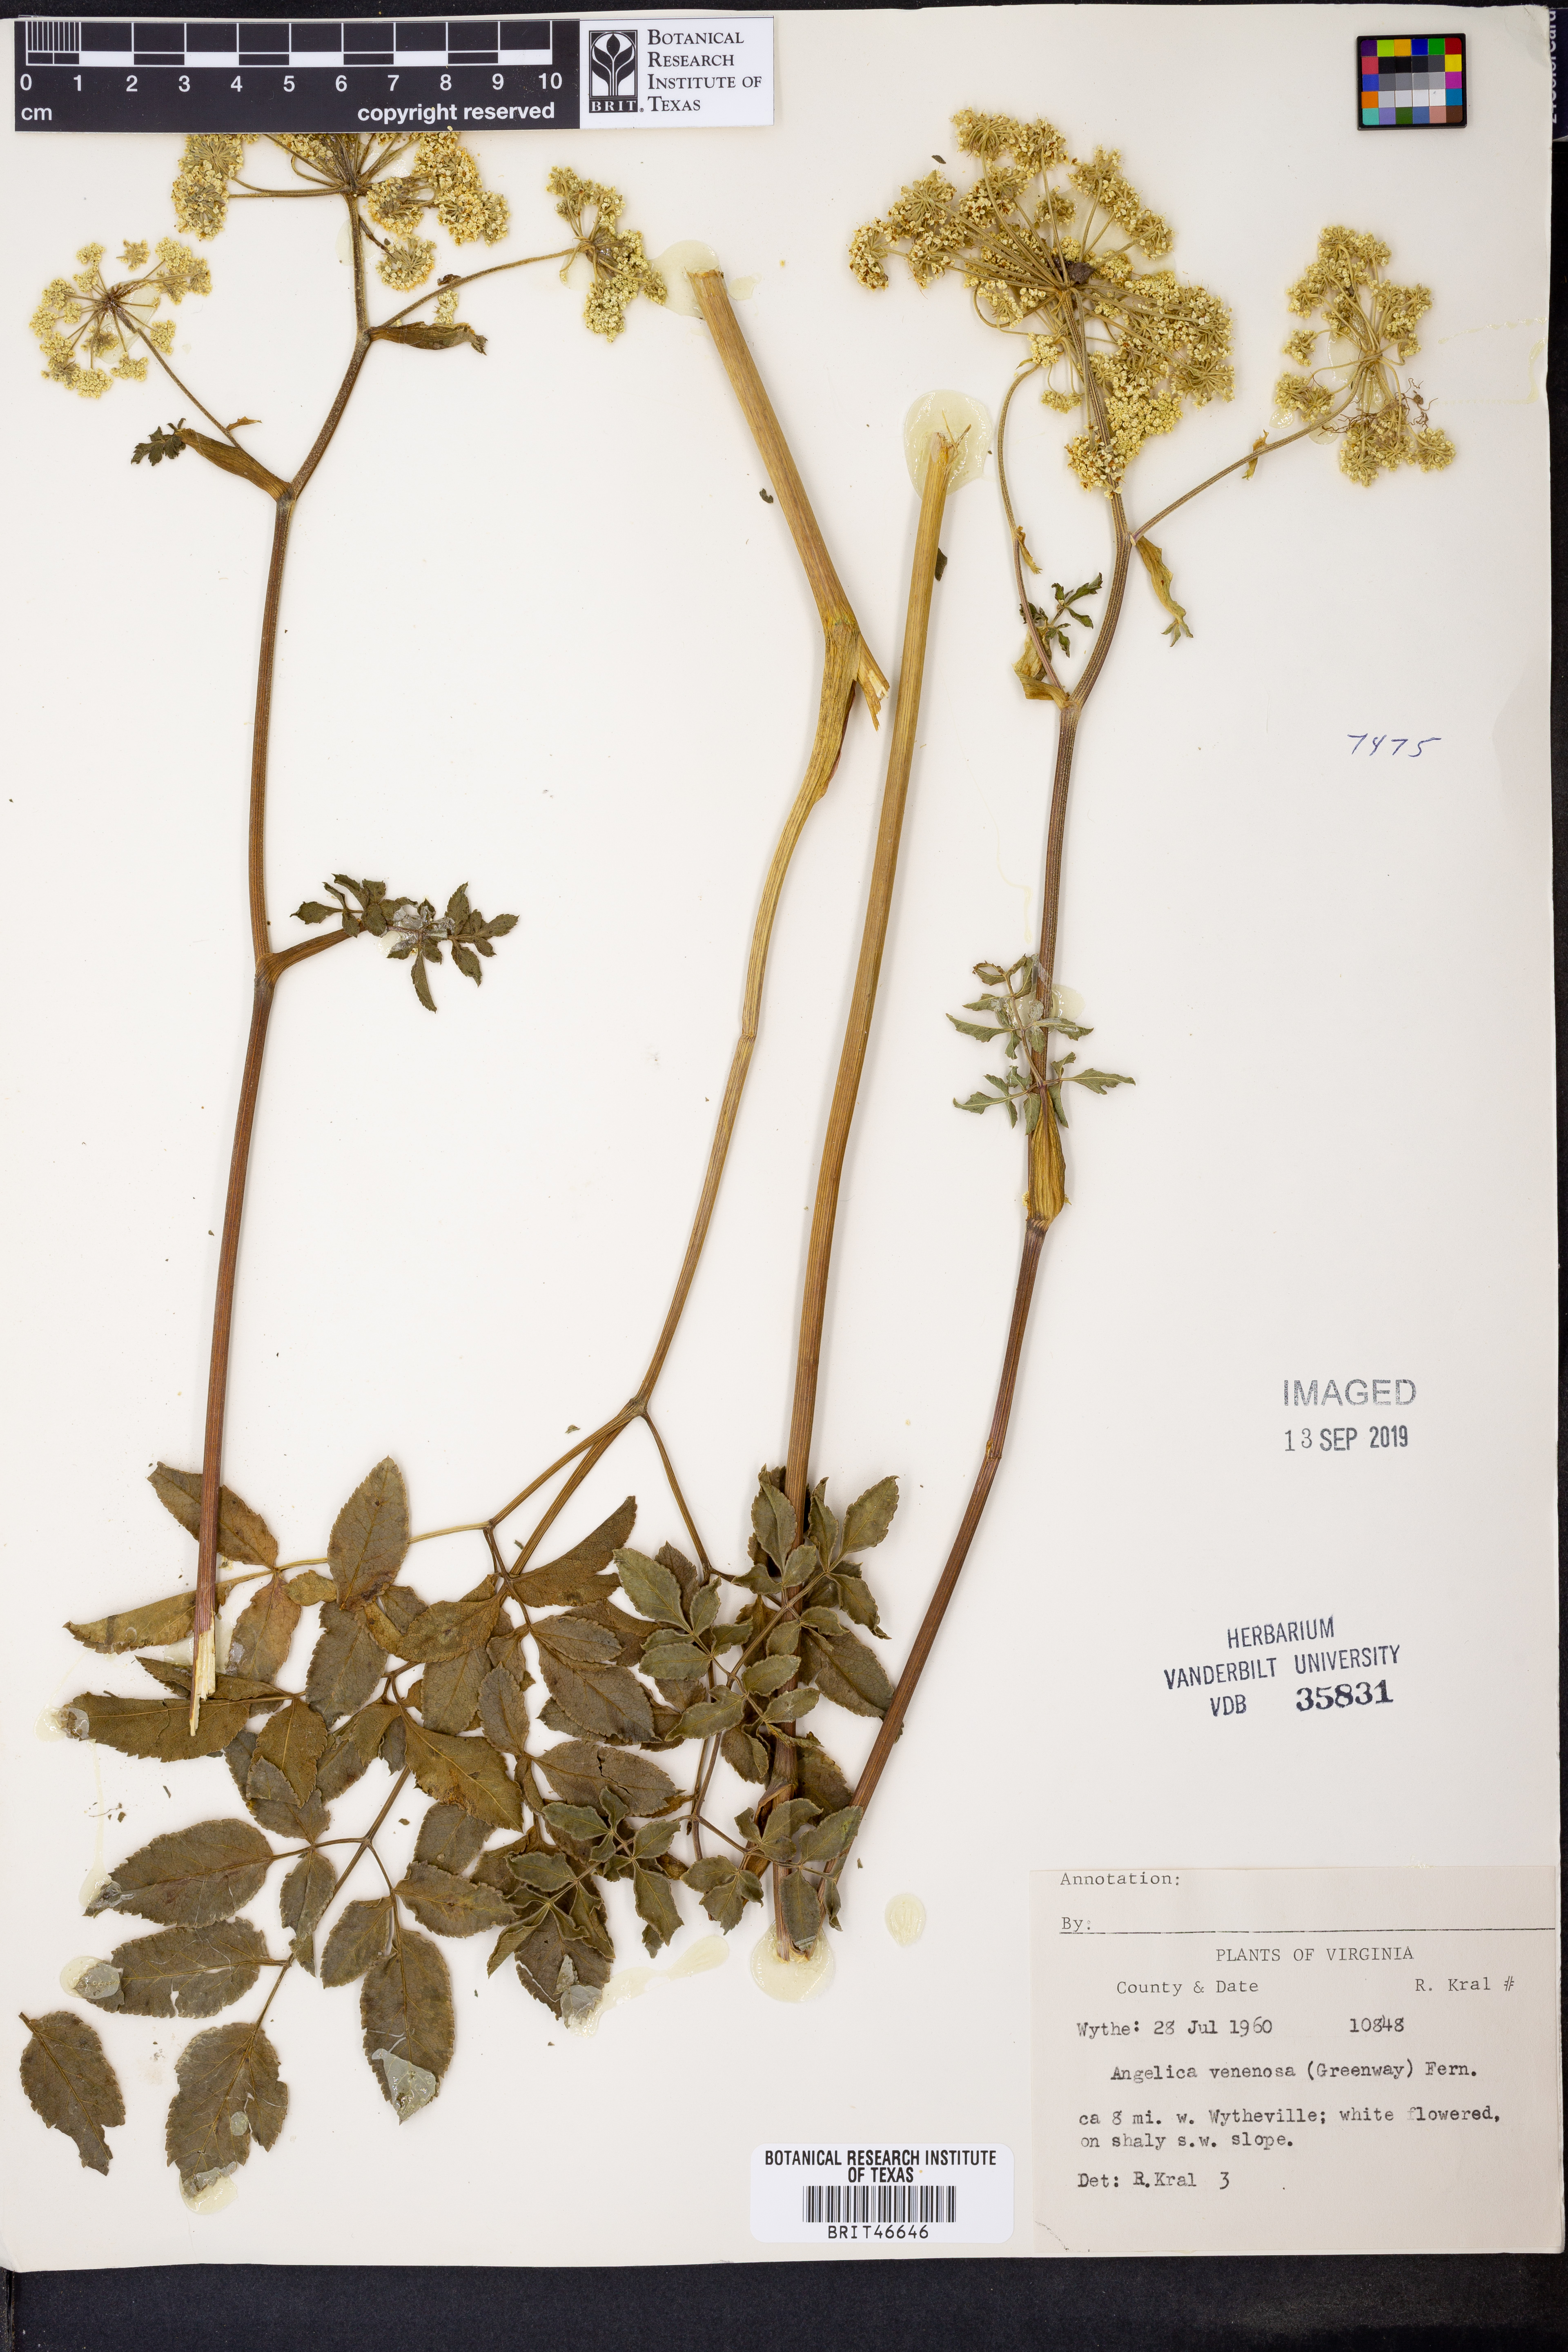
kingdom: Plantae
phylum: Tracheophyta
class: Magnoliopsida
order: Apiales
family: Apiaceae
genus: Angelica
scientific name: Angelica venenosa
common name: Hairy angelica
